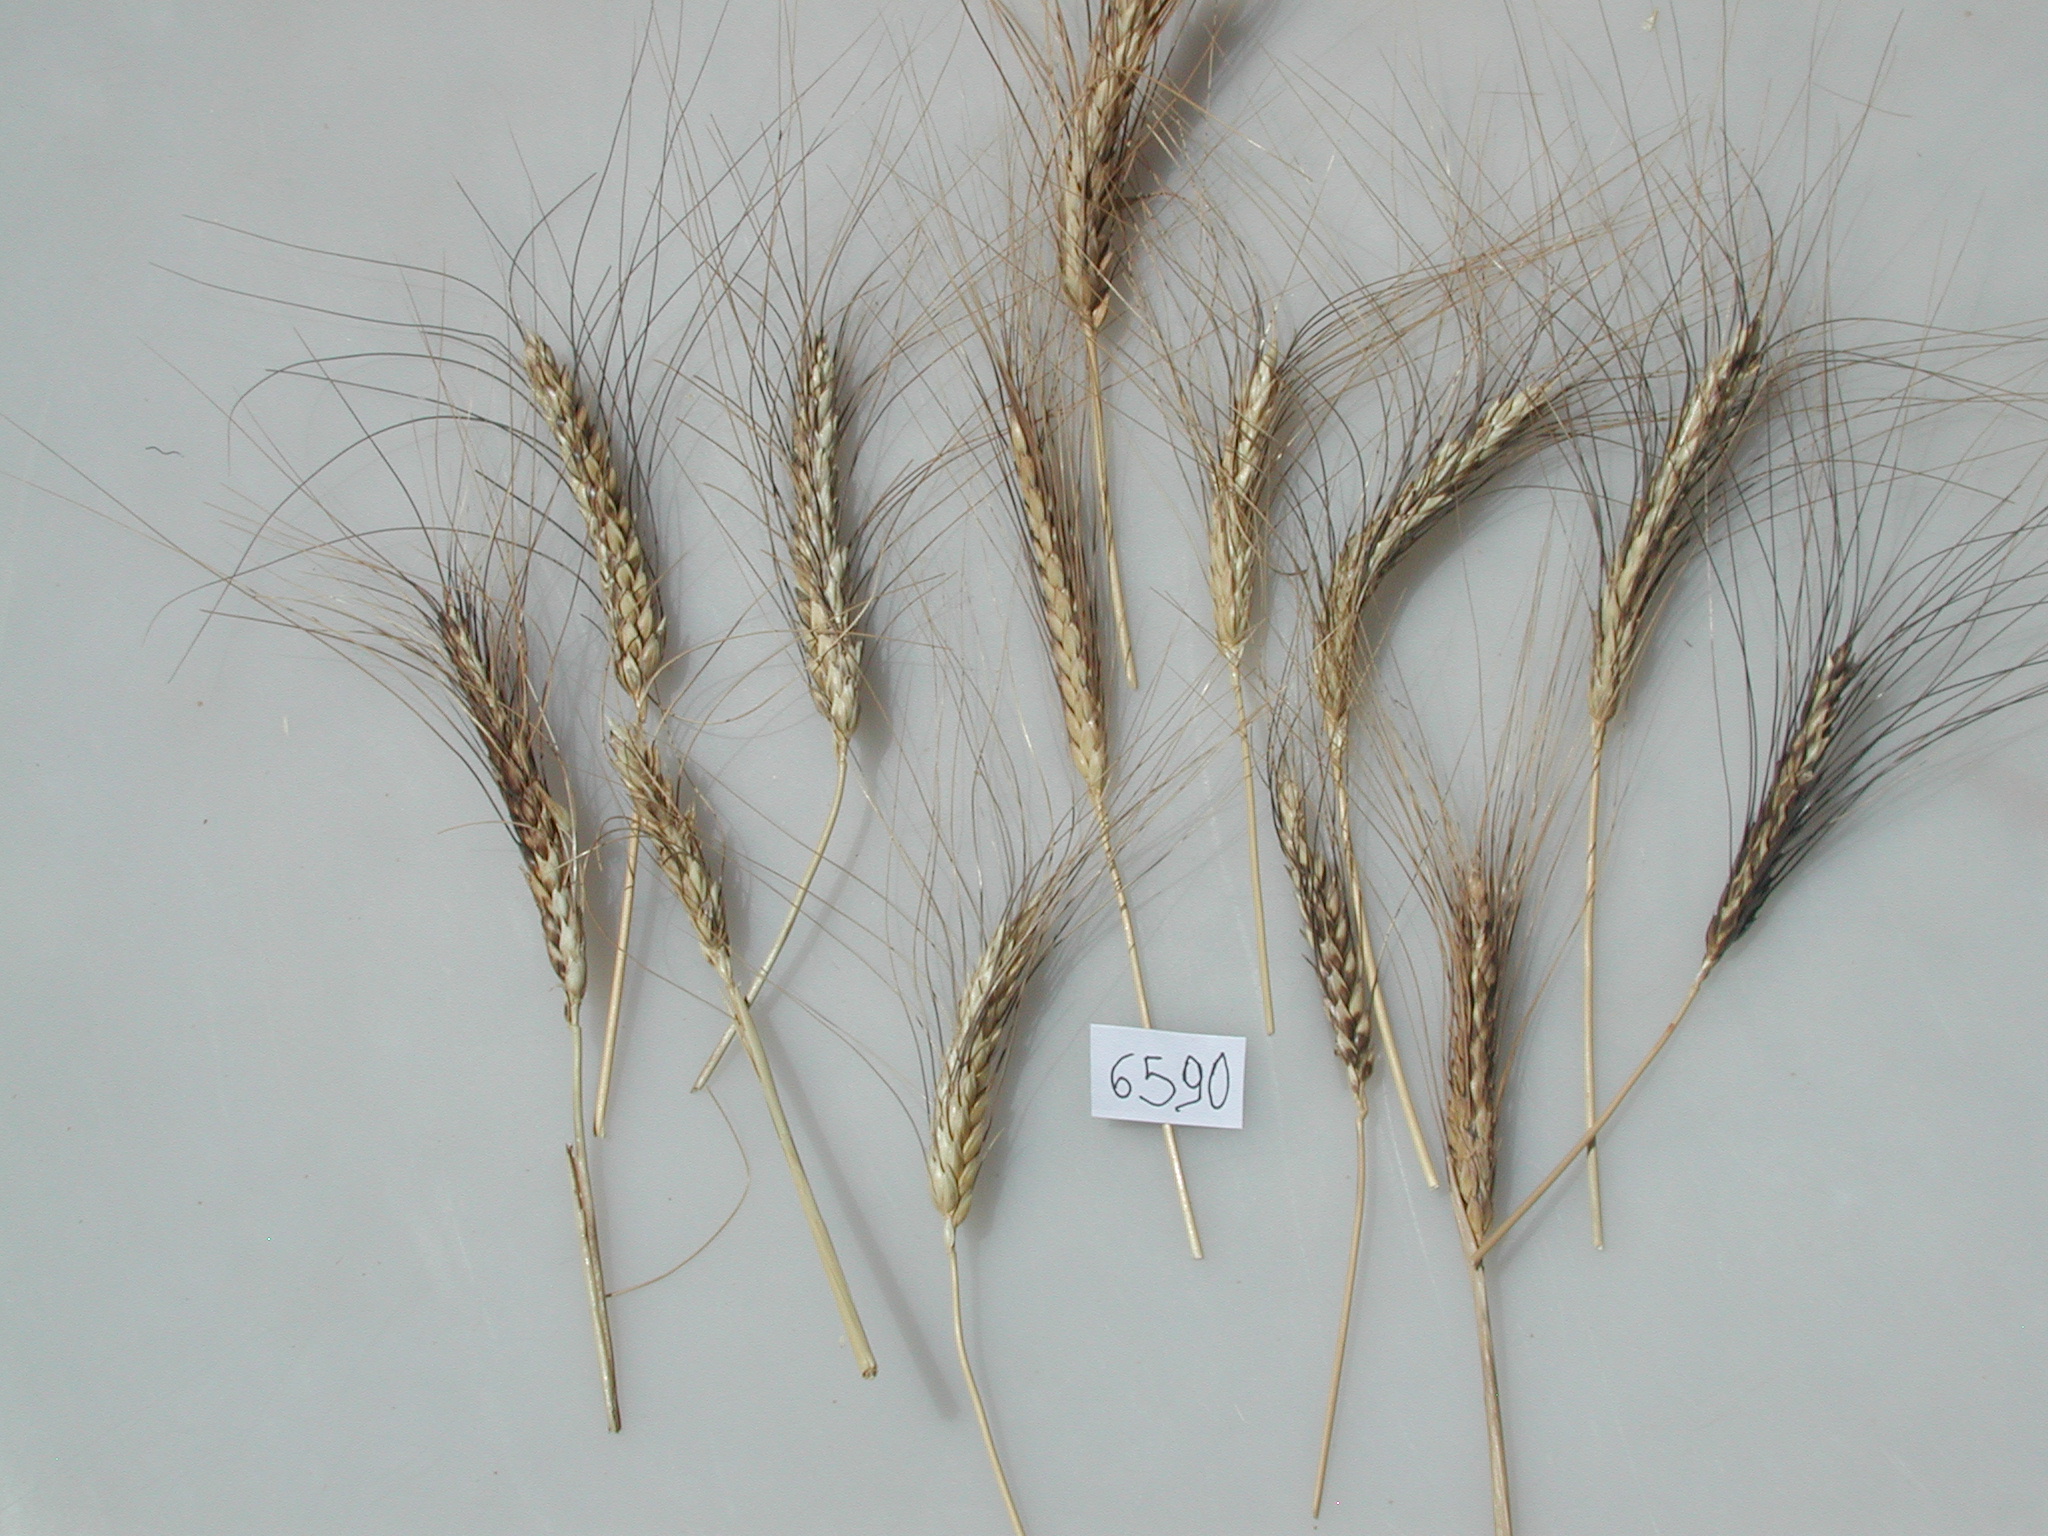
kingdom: Plantae
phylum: Tracheophyta
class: Liliopsida
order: Poales
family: Poaceae
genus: Triticum
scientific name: Triticum turgidum
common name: Wheat
